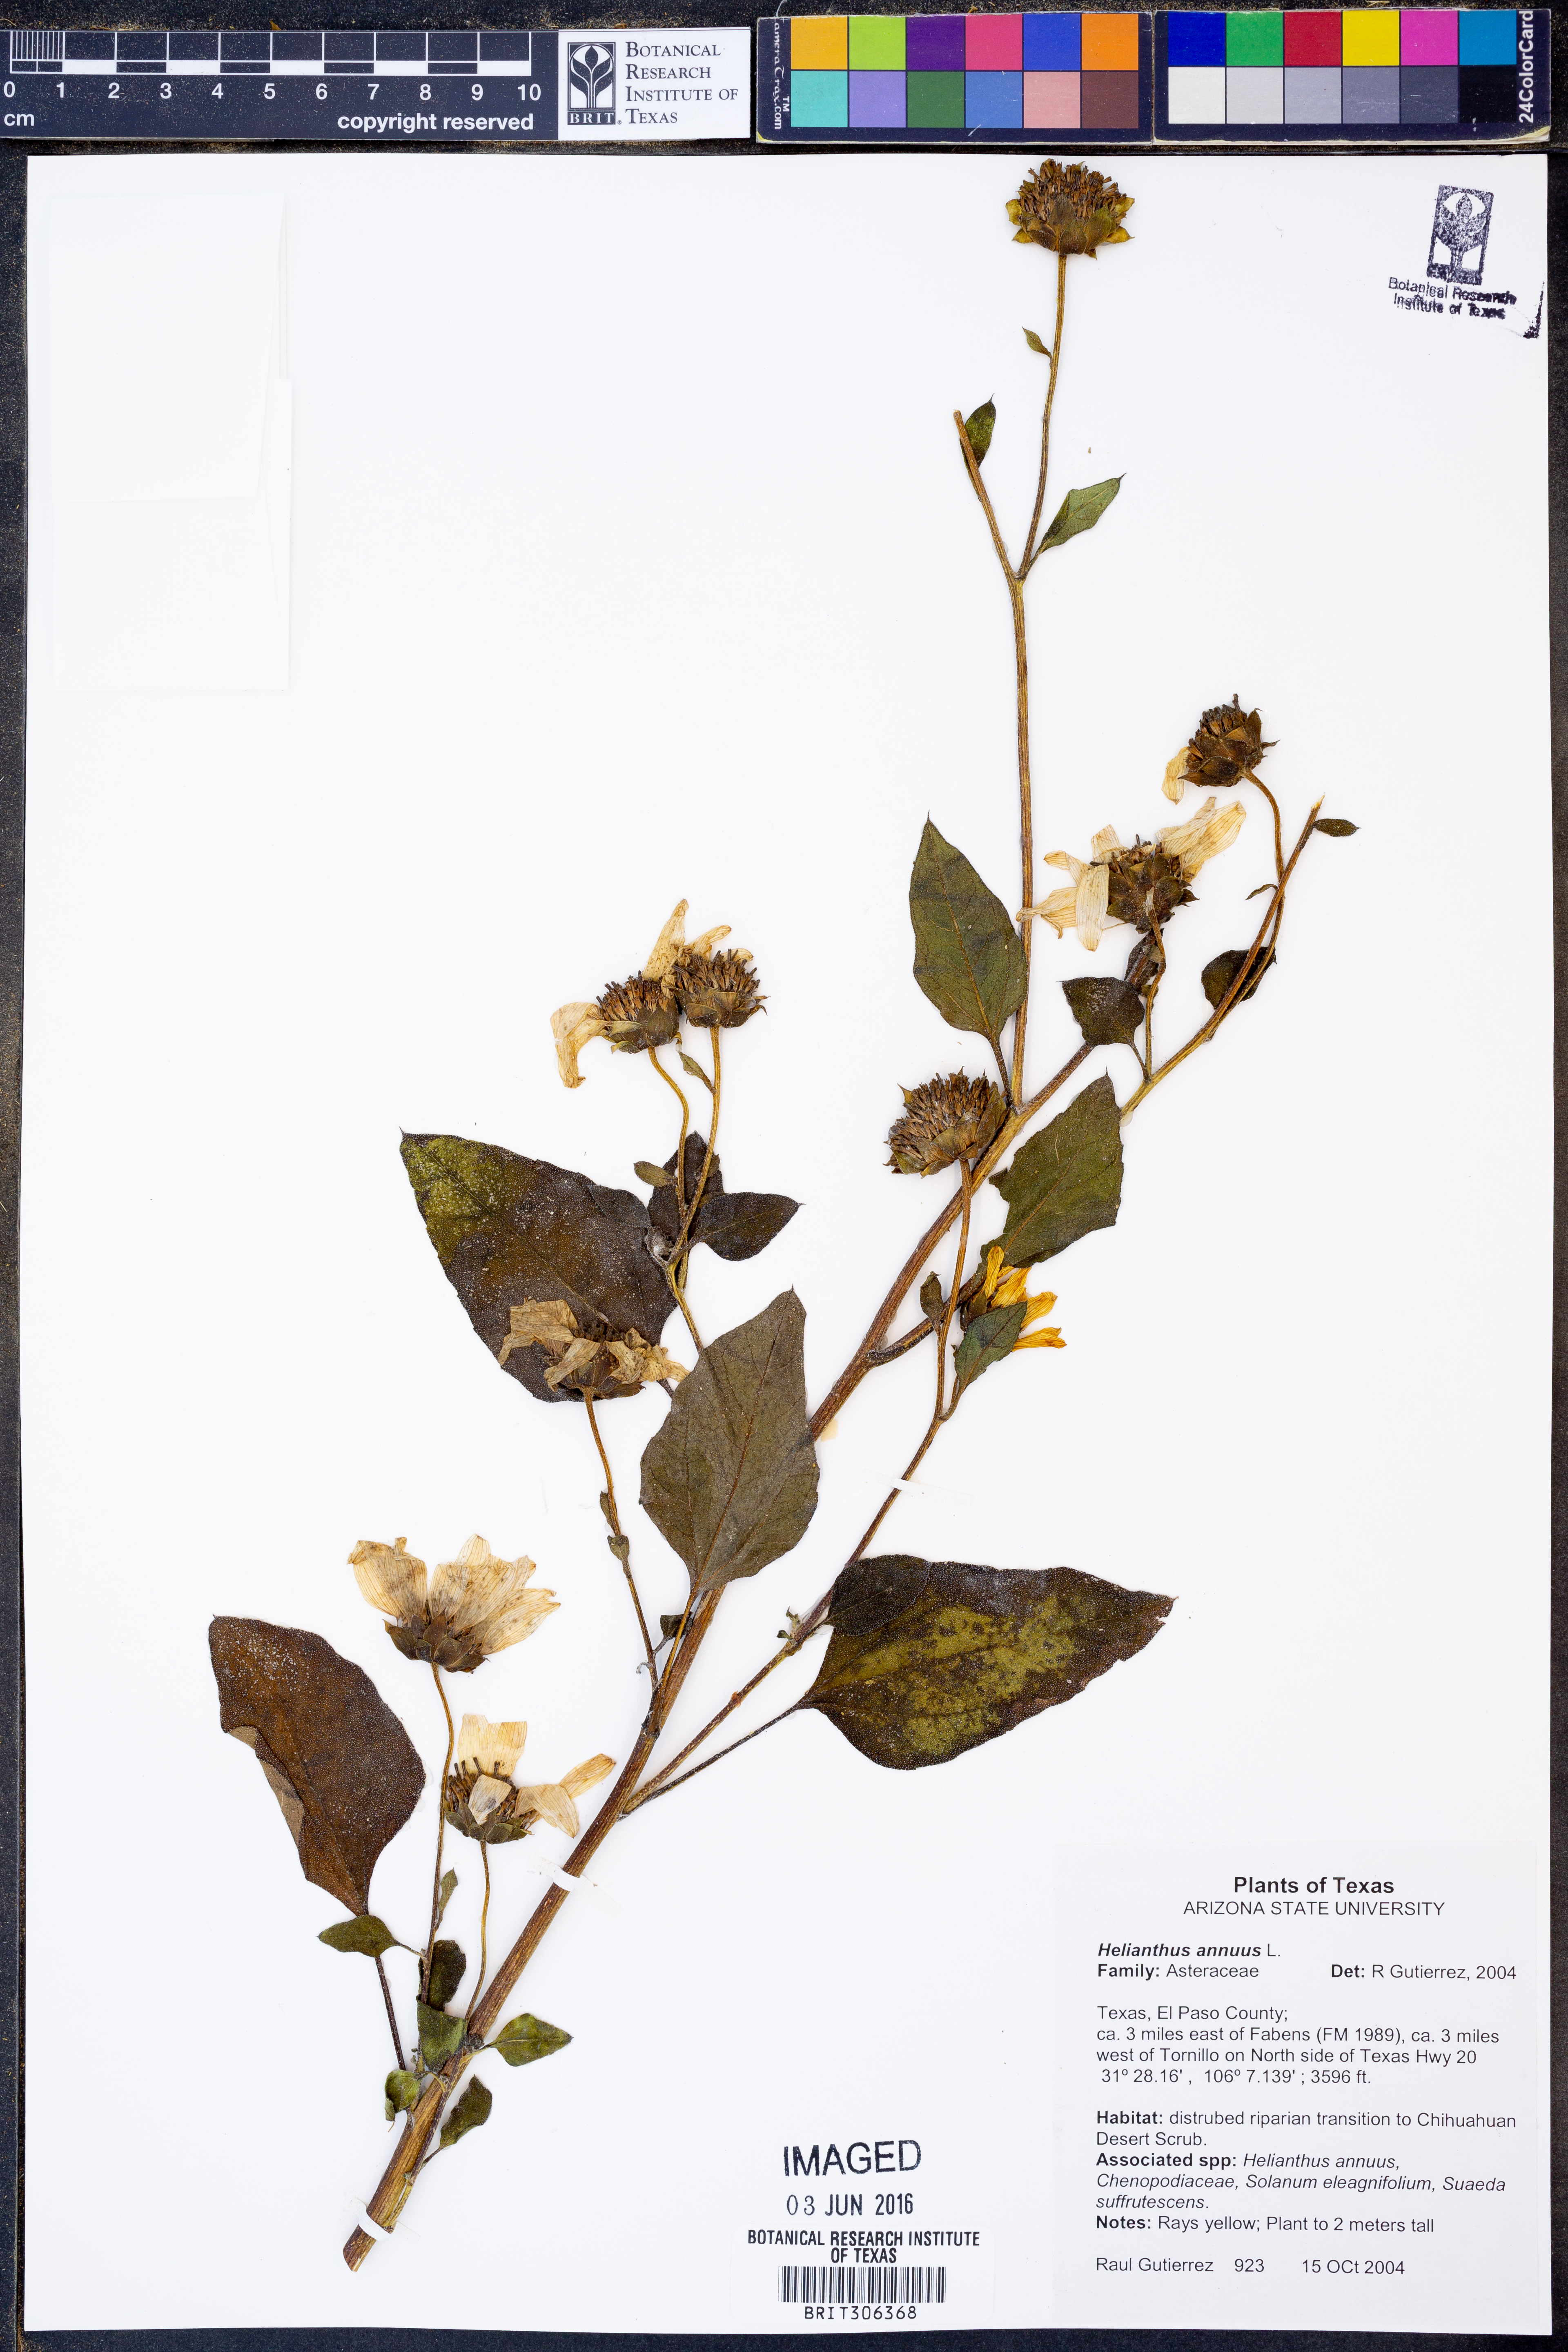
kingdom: Plantae
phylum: Tracheophyta
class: Magnoliopsida
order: Asterales
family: Asteraceae
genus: Helianthus
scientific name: Helianthus annuus
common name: Sunflower
